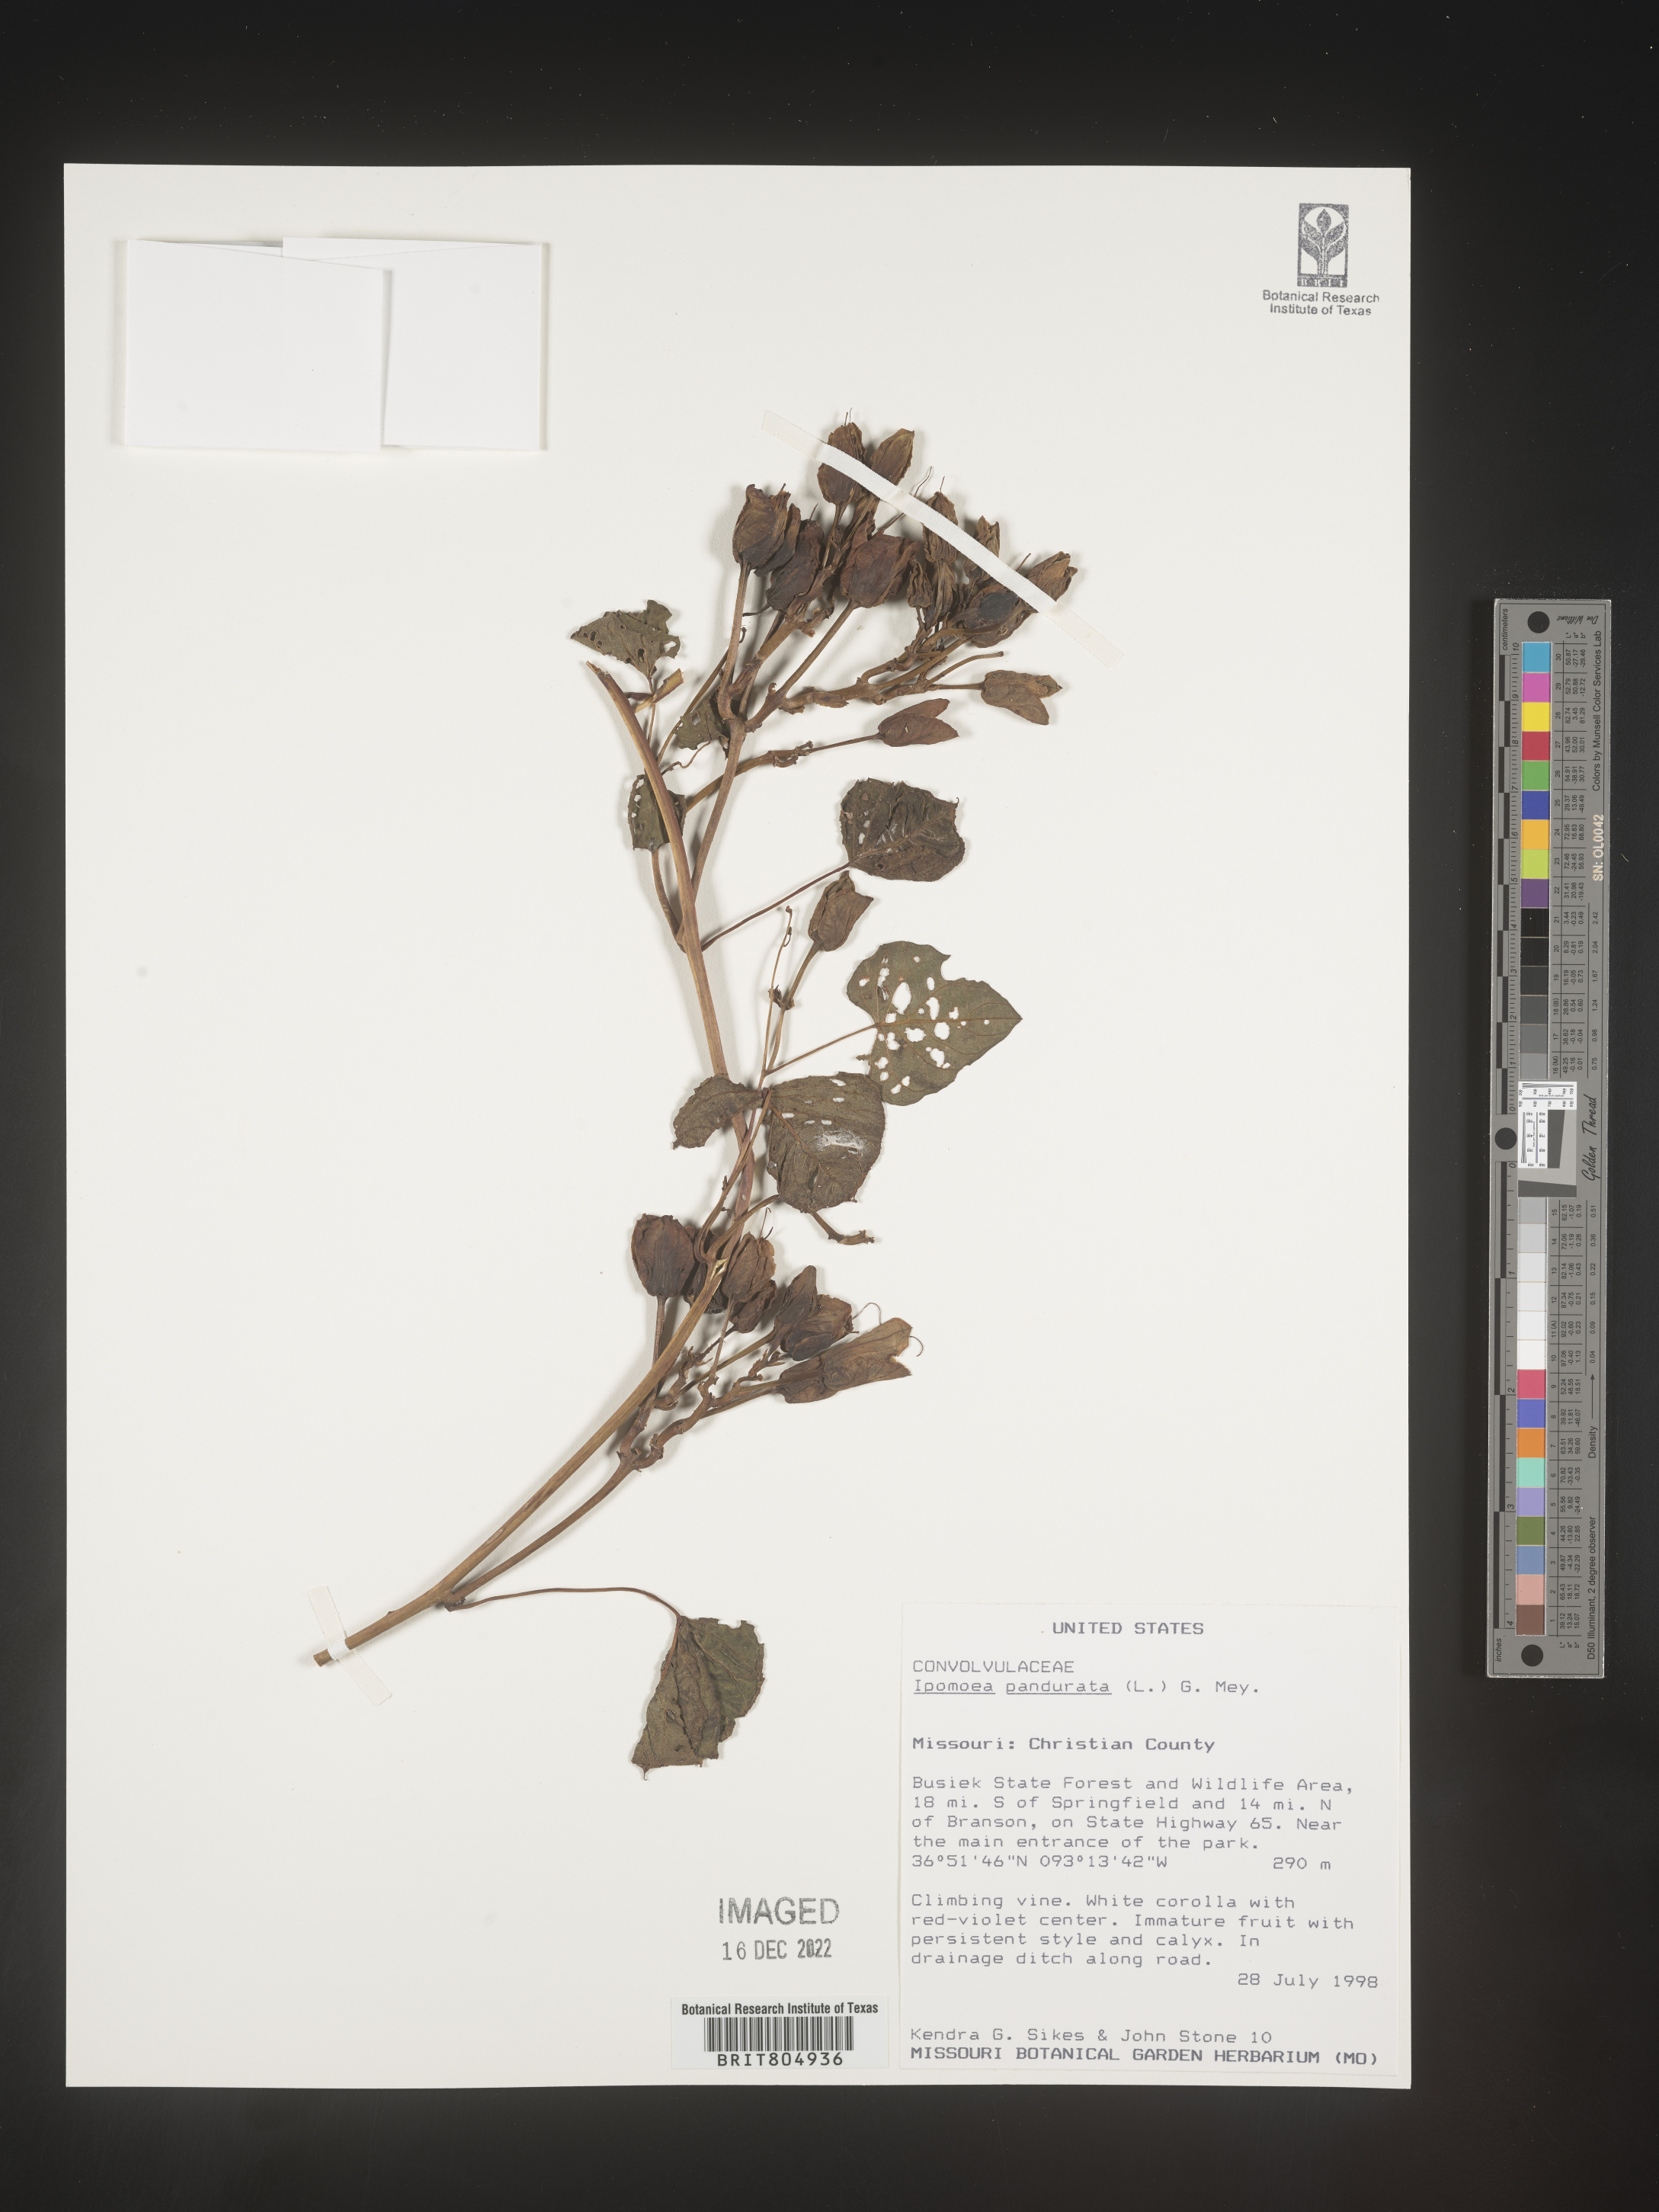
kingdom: Plantae
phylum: Tracheophyta
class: Magnoliopsida
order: Solanales
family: Convolvulaceae
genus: Ipomoea
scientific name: Ipomoea pandurata
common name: Man-of-the-earth
